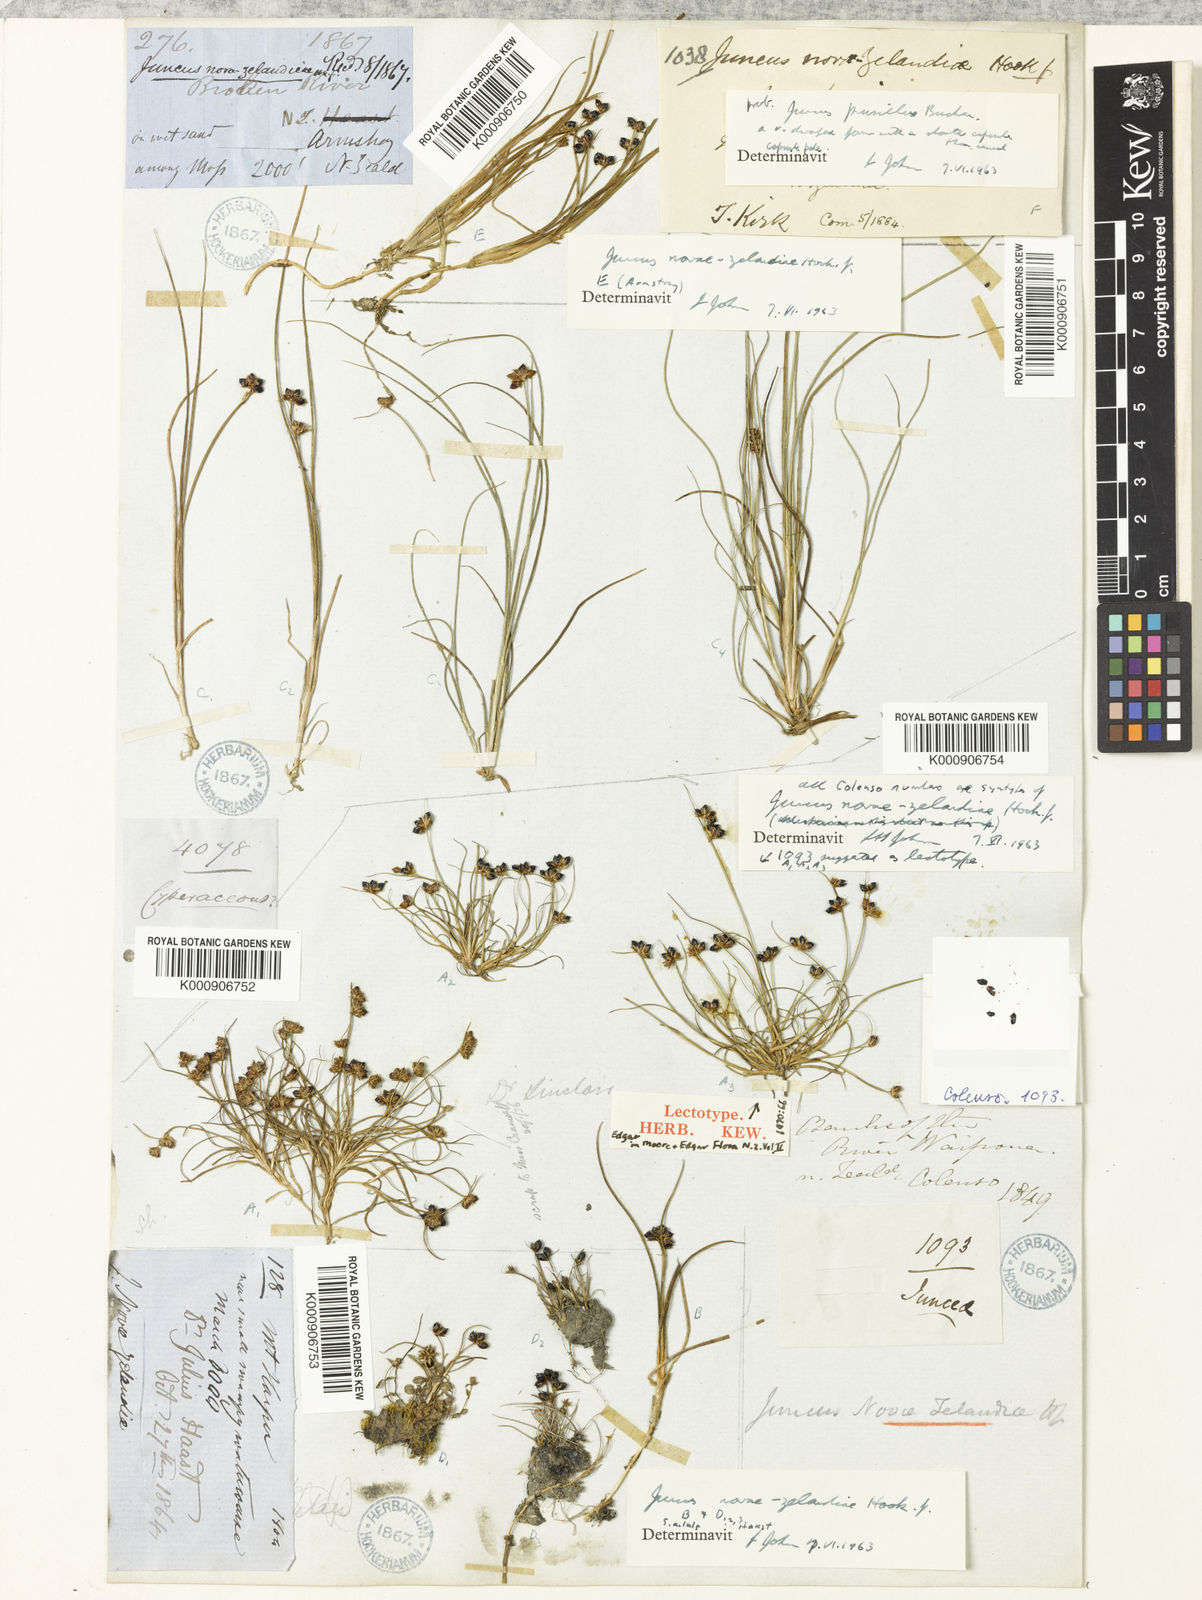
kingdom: Plantae
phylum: Tracheophyta
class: Liliopsida
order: Poales
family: Juncaceae
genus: Juncus
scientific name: Juncus novae-zelandiae
